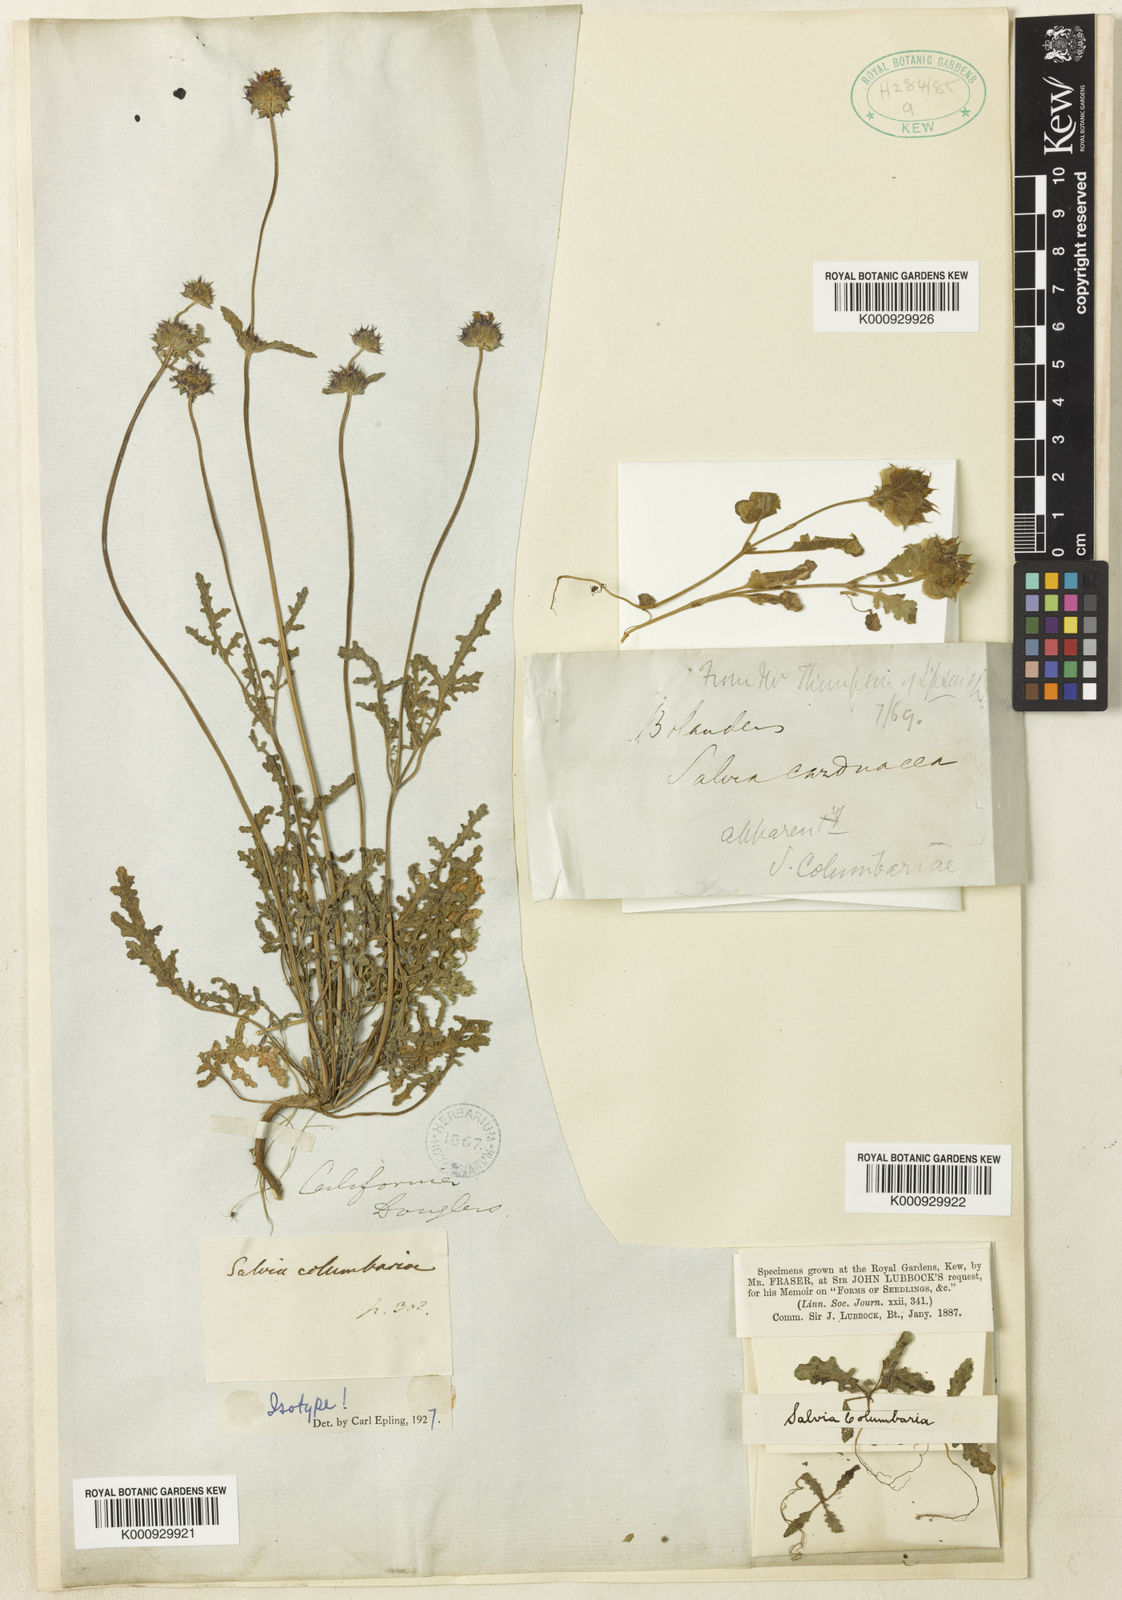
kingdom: Plantae
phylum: Tracheophyta
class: Magnoliopsida
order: Lamiales
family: Lamiaceae
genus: Salvia
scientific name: Salvia columbariae
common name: Chia
